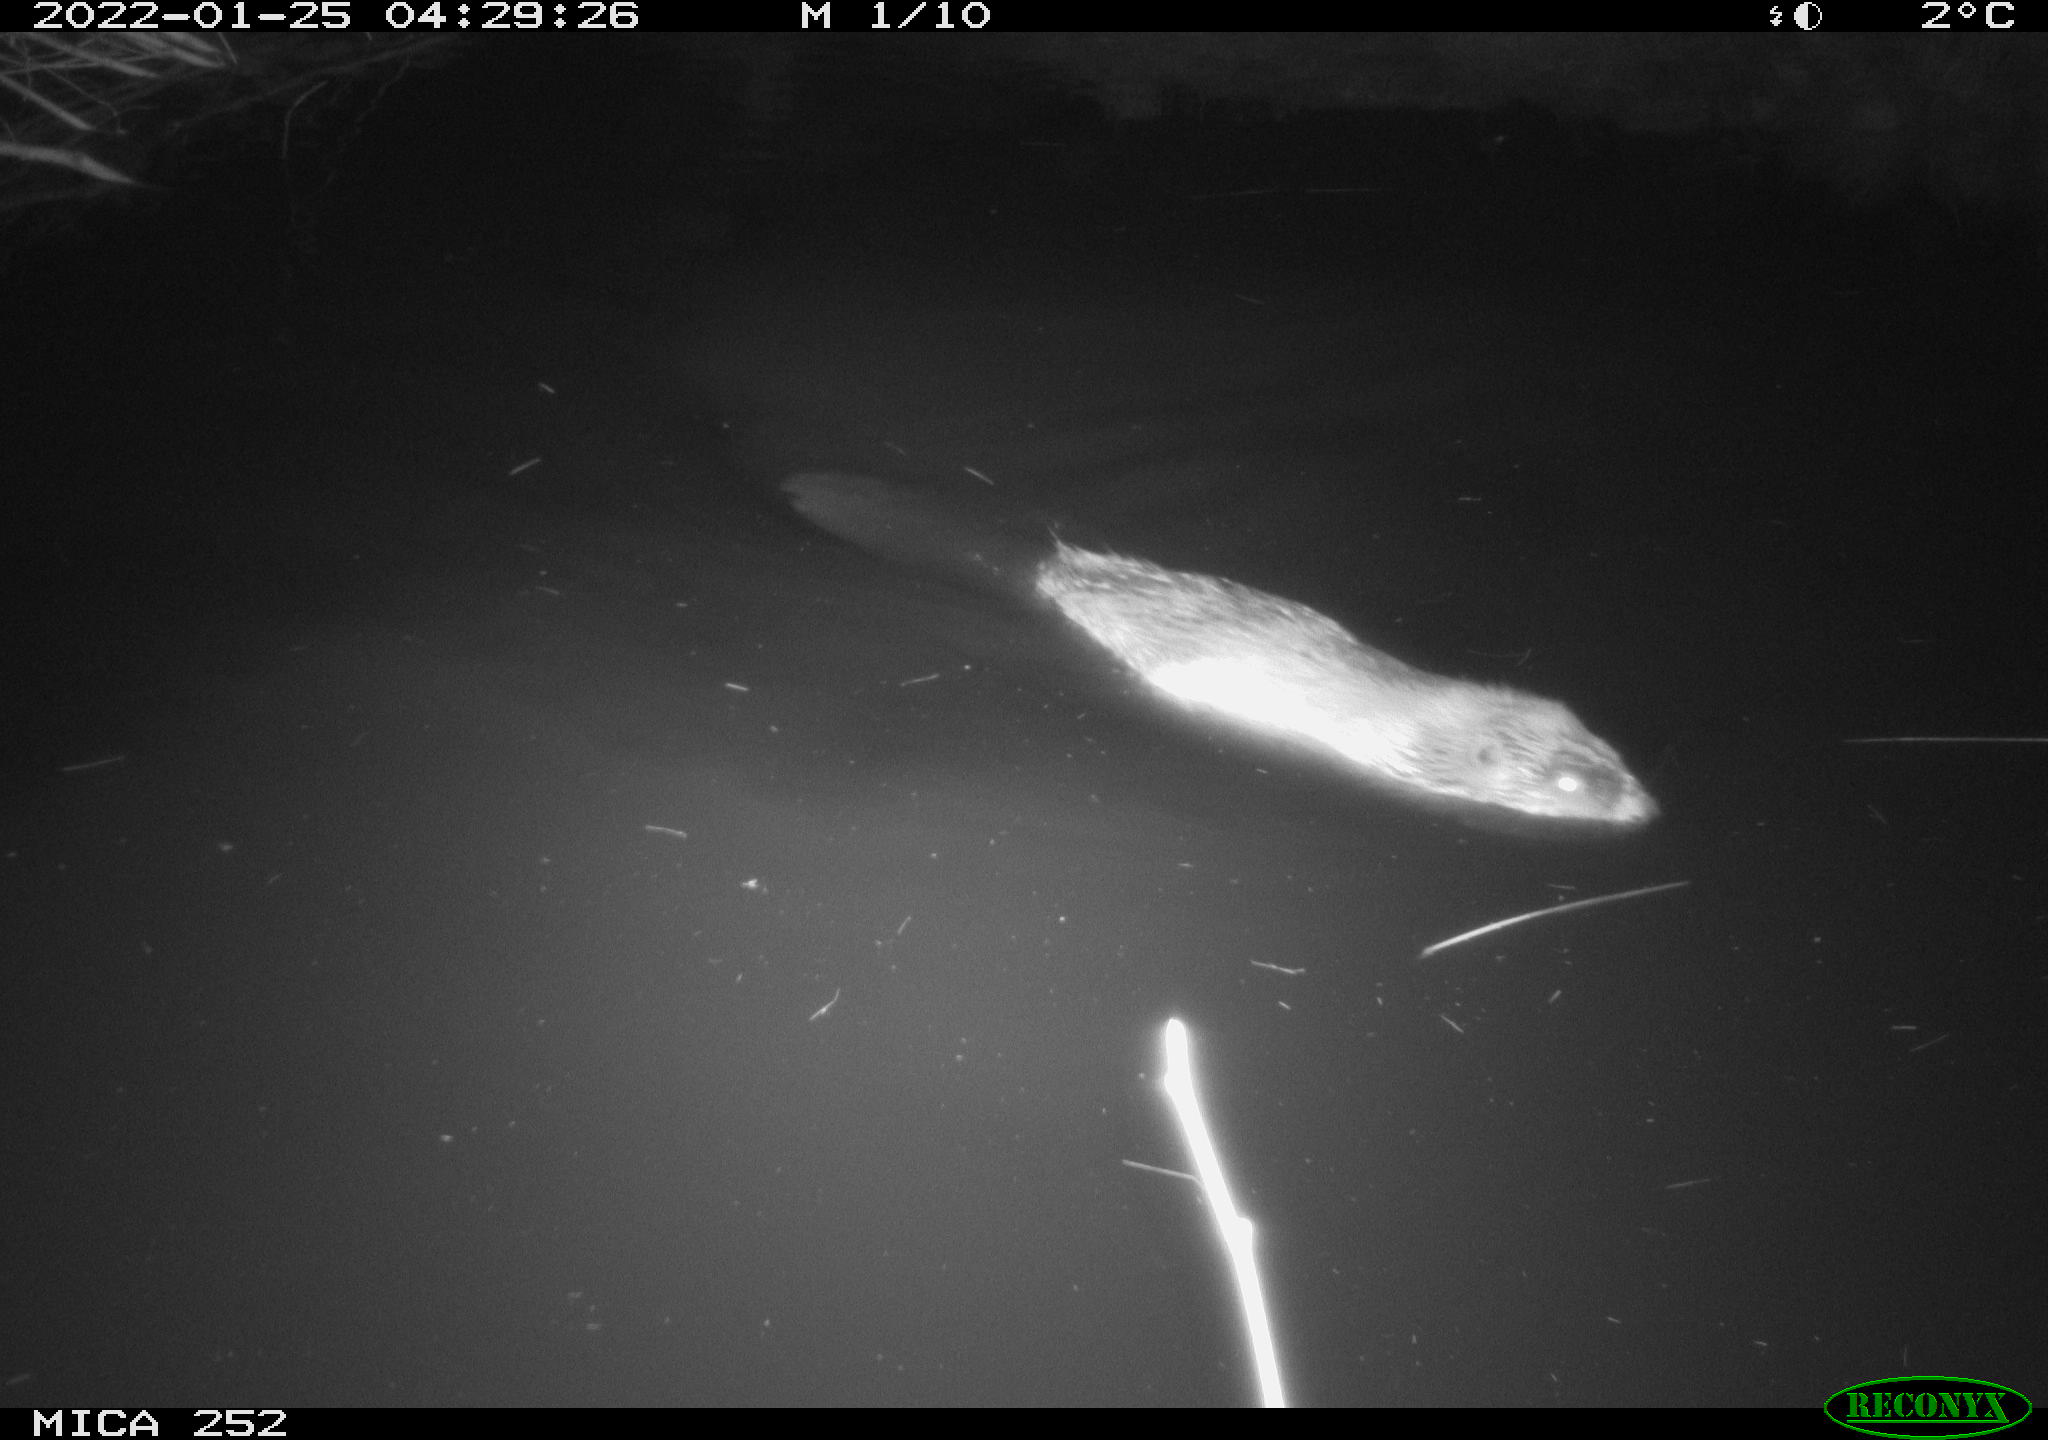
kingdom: Animalia
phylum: Chordata
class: Mammalia
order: Rodentia
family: Castoridae
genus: Castor
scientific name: Castor fiber
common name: Eurasian beaver
